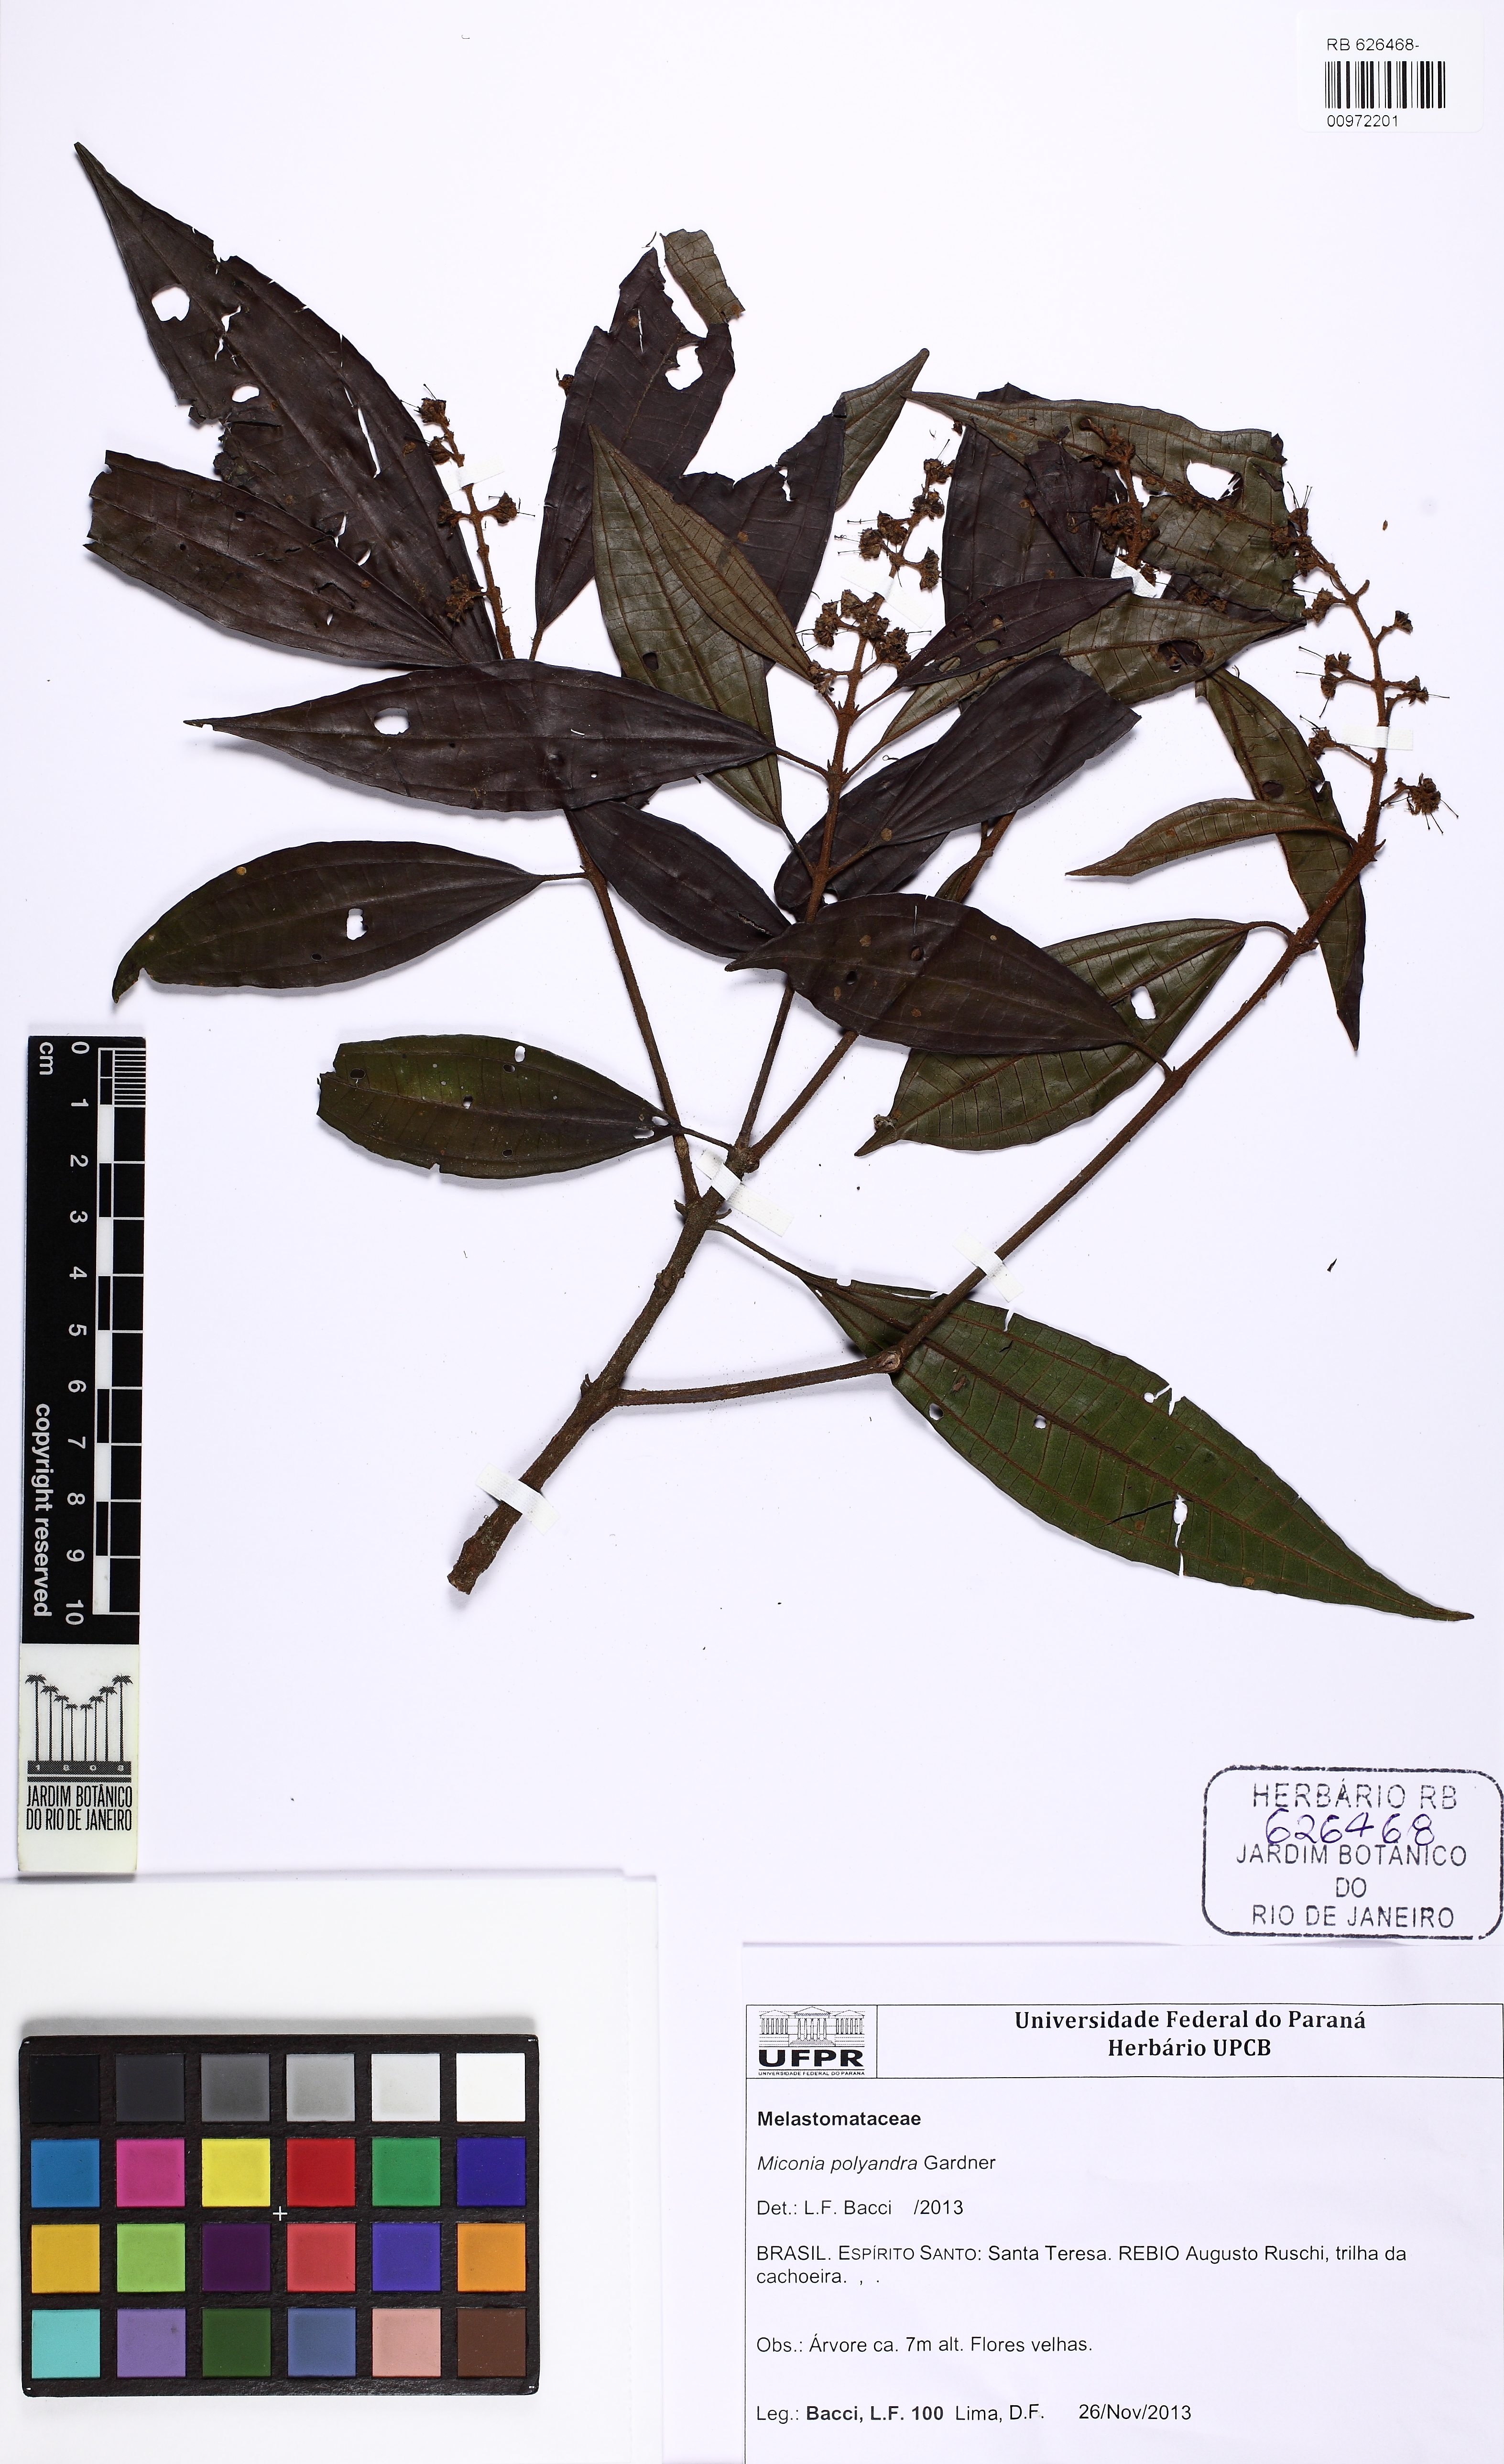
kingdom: Plantae
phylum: Tracheophyta
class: Magnoliopsida
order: Myrtales
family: Melastomataceae
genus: Miconia
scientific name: Miconia polyandra
